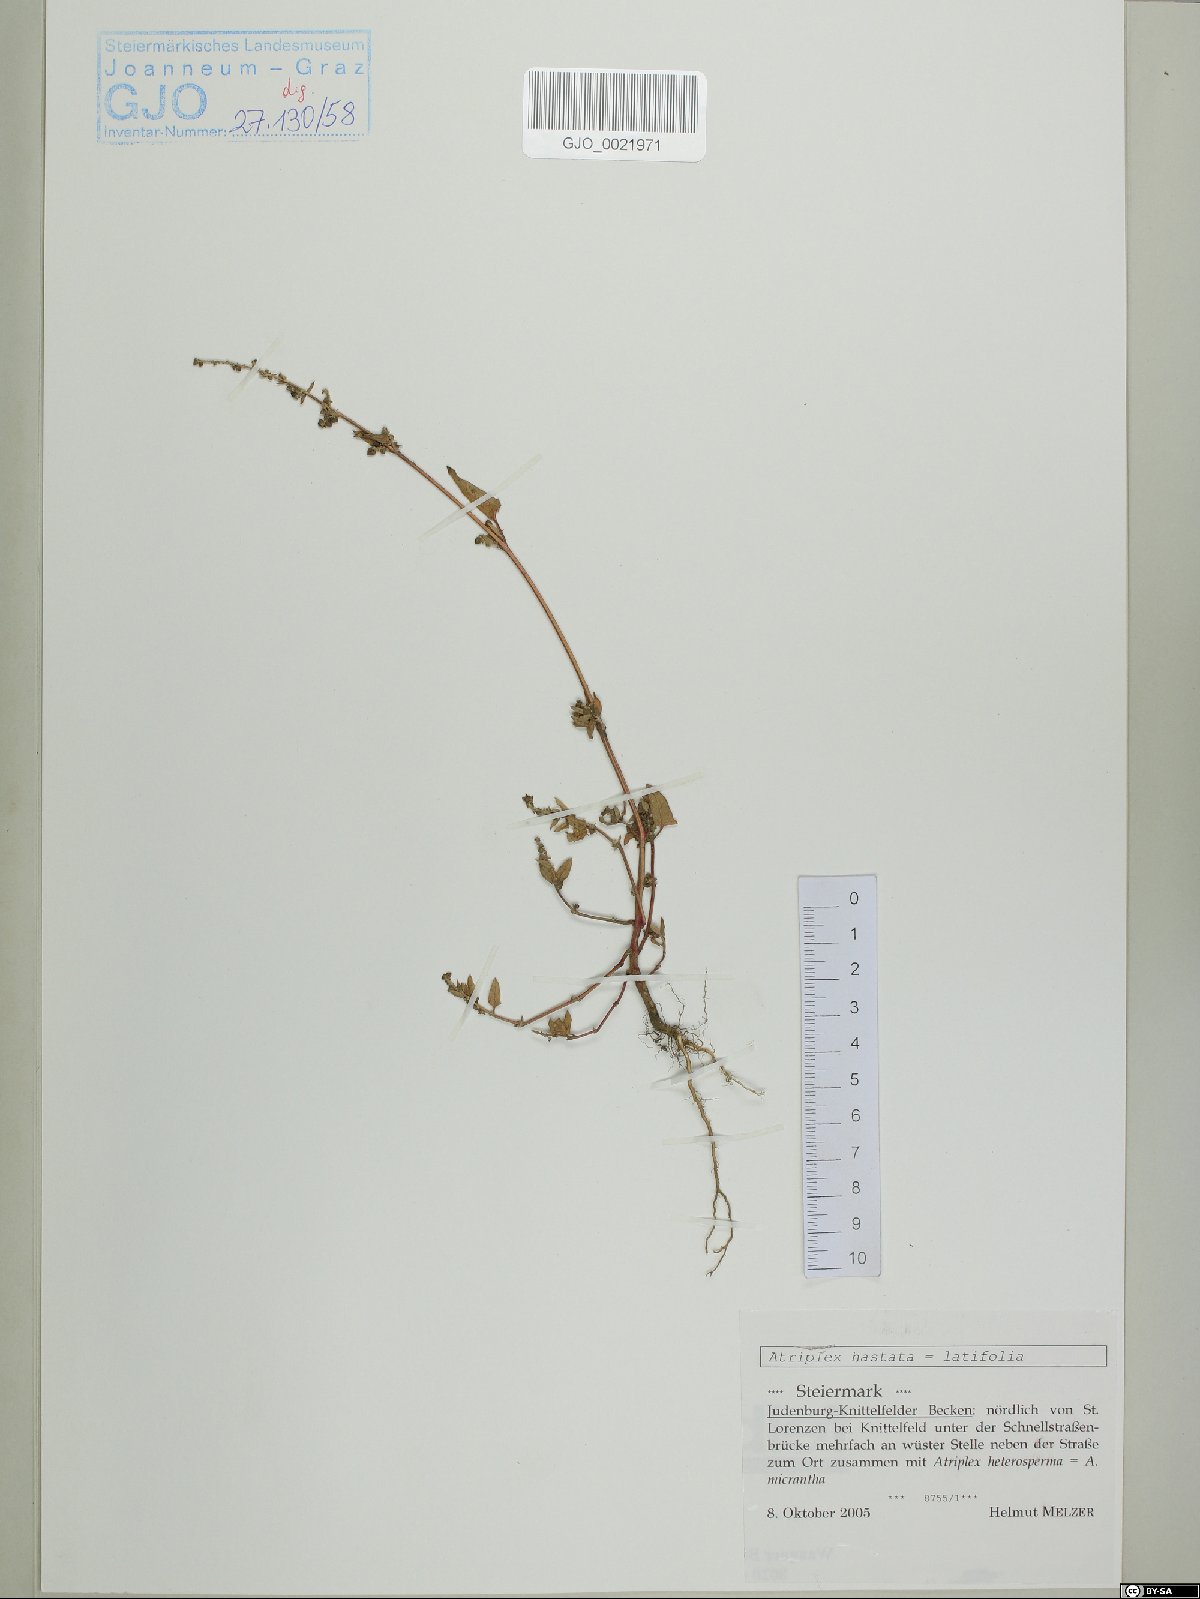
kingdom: Plantae
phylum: Tracheophyta
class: Magnoliopsida
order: Caryophyllales
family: Amaranthaceae
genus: Atriplex
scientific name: Atriplex calotheca
